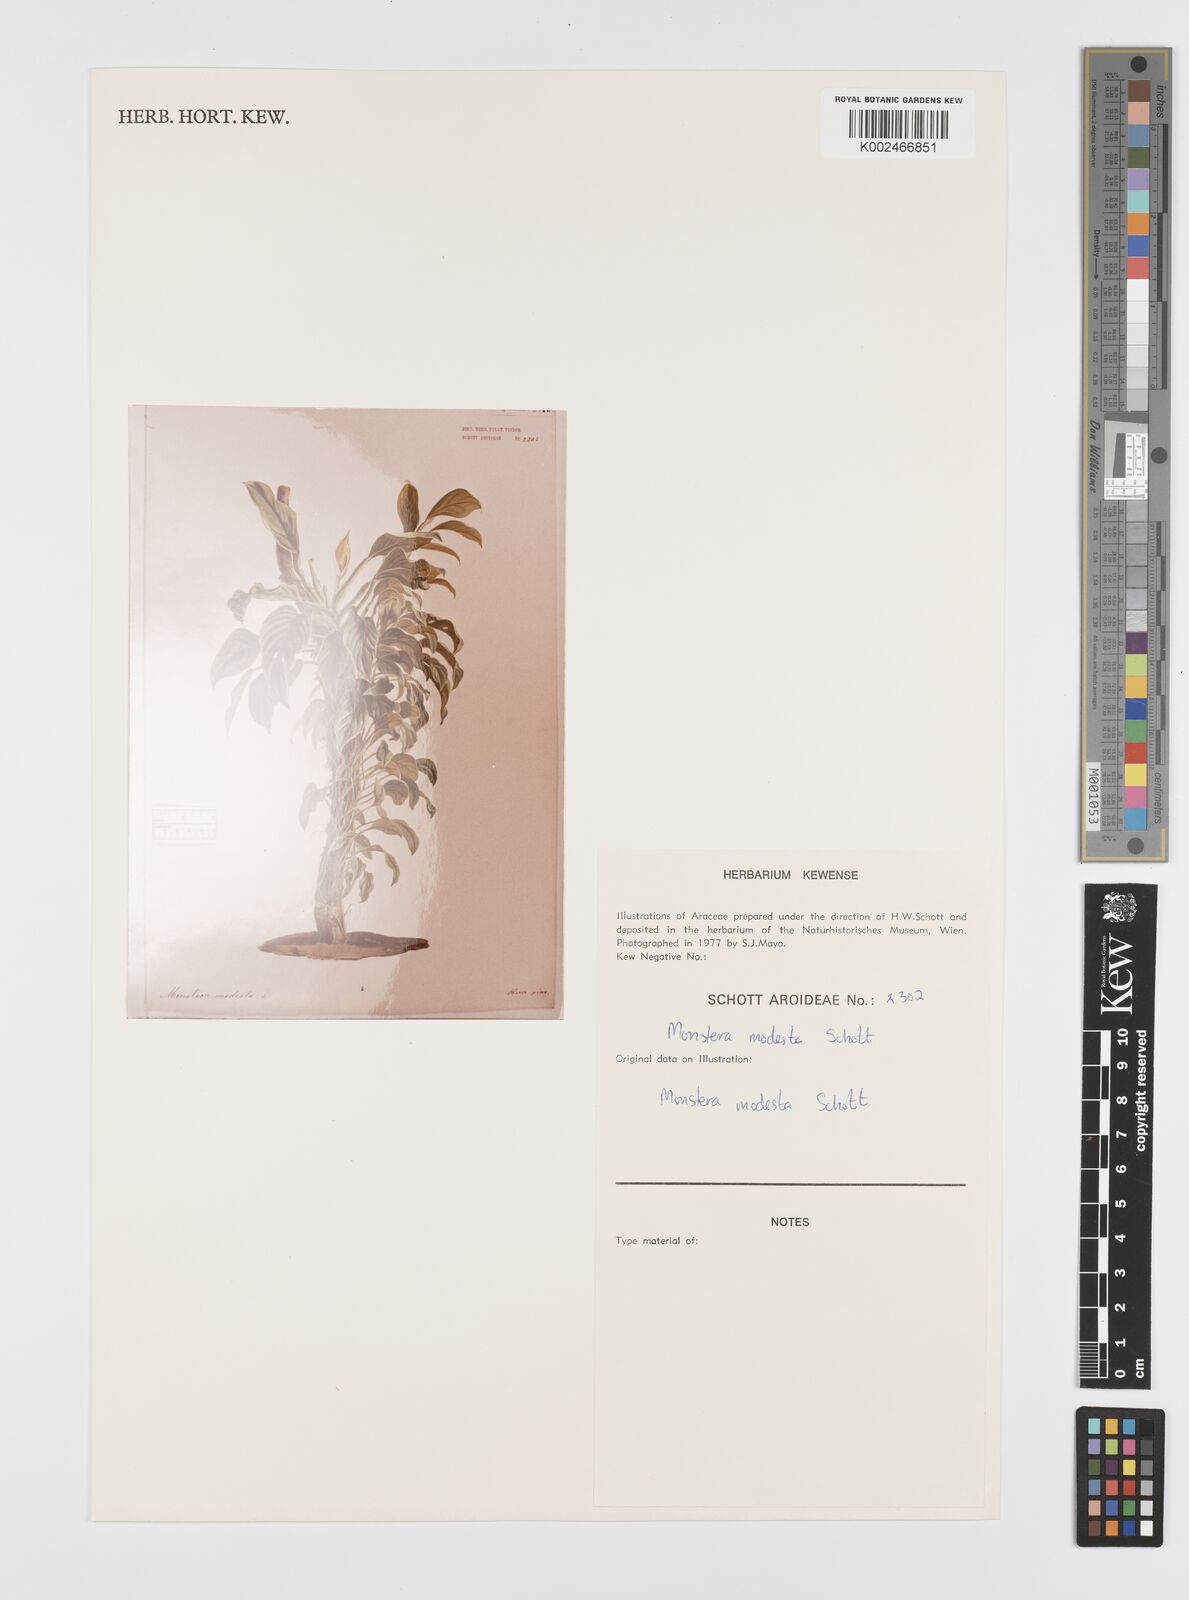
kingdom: Plantae
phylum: Tracheophyta
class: Liliopsida
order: Alismatales
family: Araceae
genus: Monstera
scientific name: Monstera adansonii
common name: Tarovine
